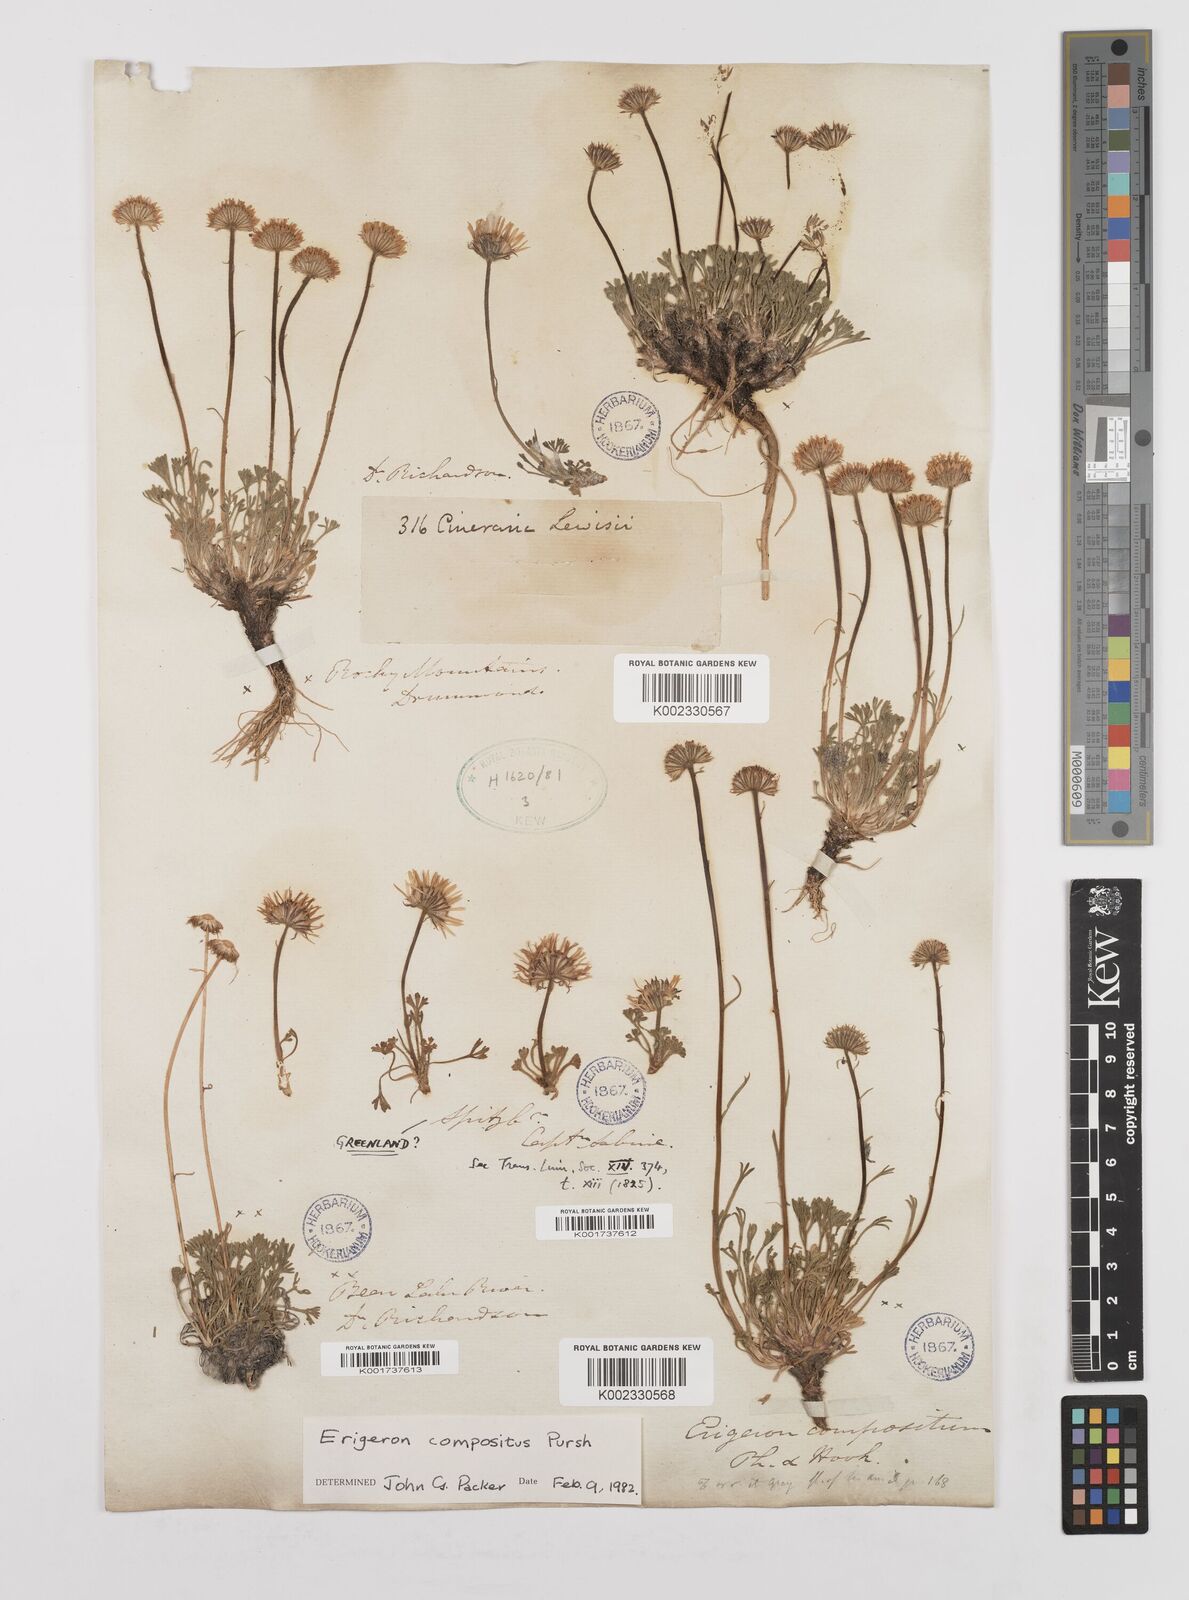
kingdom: Plantae
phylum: Tracheophyta
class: Magnoliopsida
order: Asterales
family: Asteraceae
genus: Erigeron
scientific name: Erigeron compositus
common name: Dwarf mountain fleabane
